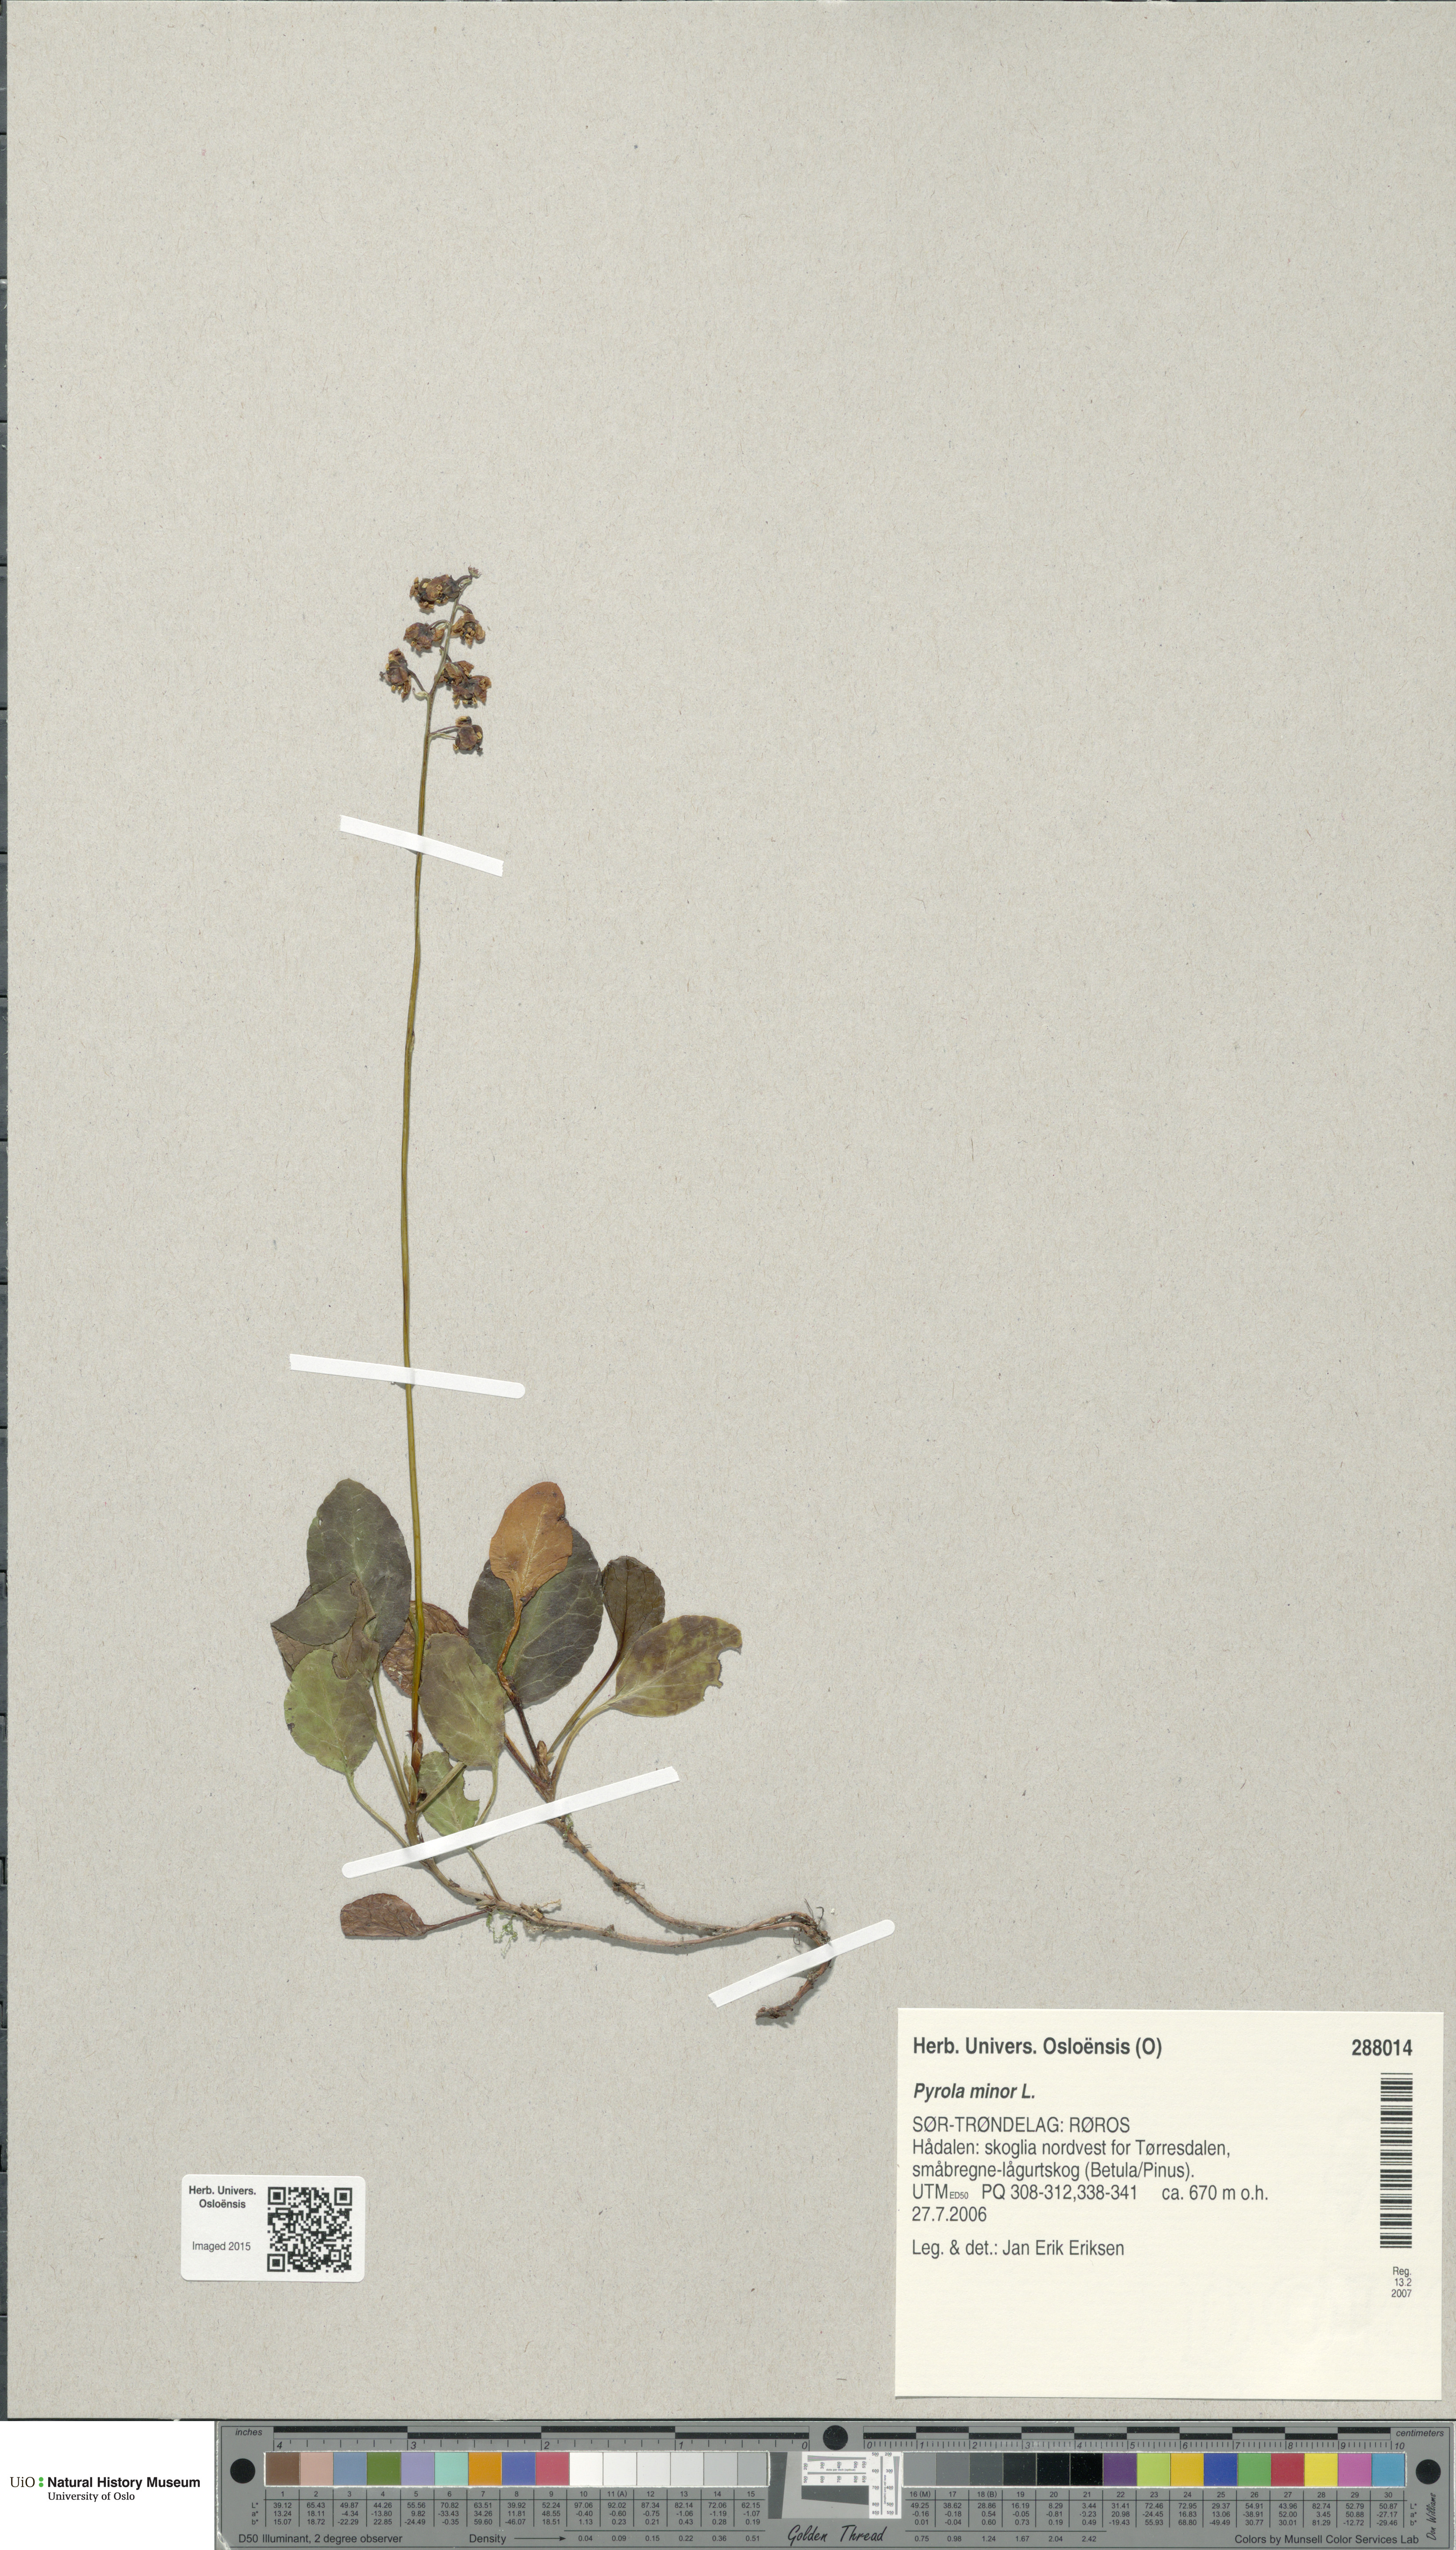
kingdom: Plantae
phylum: Tracheophyta
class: Magnoliopsida
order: Ericales
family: Ericaceae
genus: Pyrola
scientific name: Pyrola minor
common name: Common wintergreen
